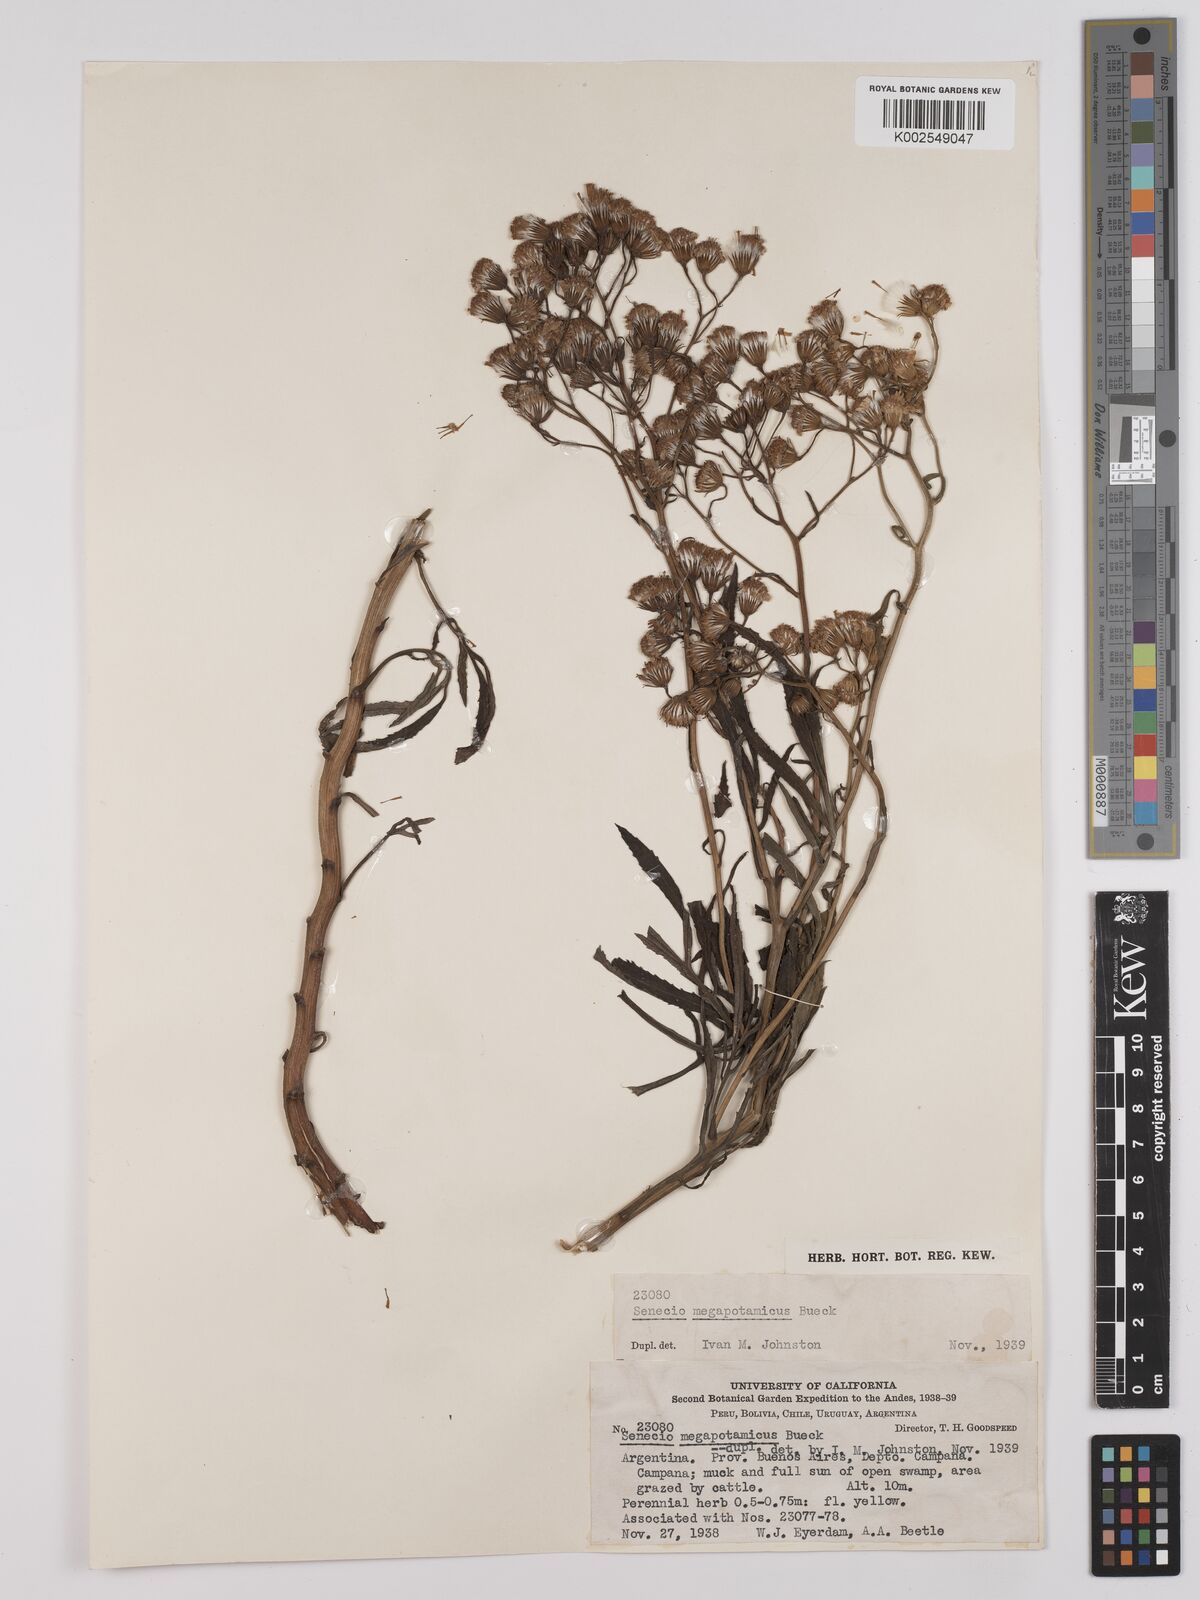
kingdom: Plantae
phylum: Tracheophyta
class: Magnoliopsida
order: Asterales
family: Asteraceae
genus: Senecio
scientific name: Senecio brasiliensis
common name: Hemp-leaf ragwort
